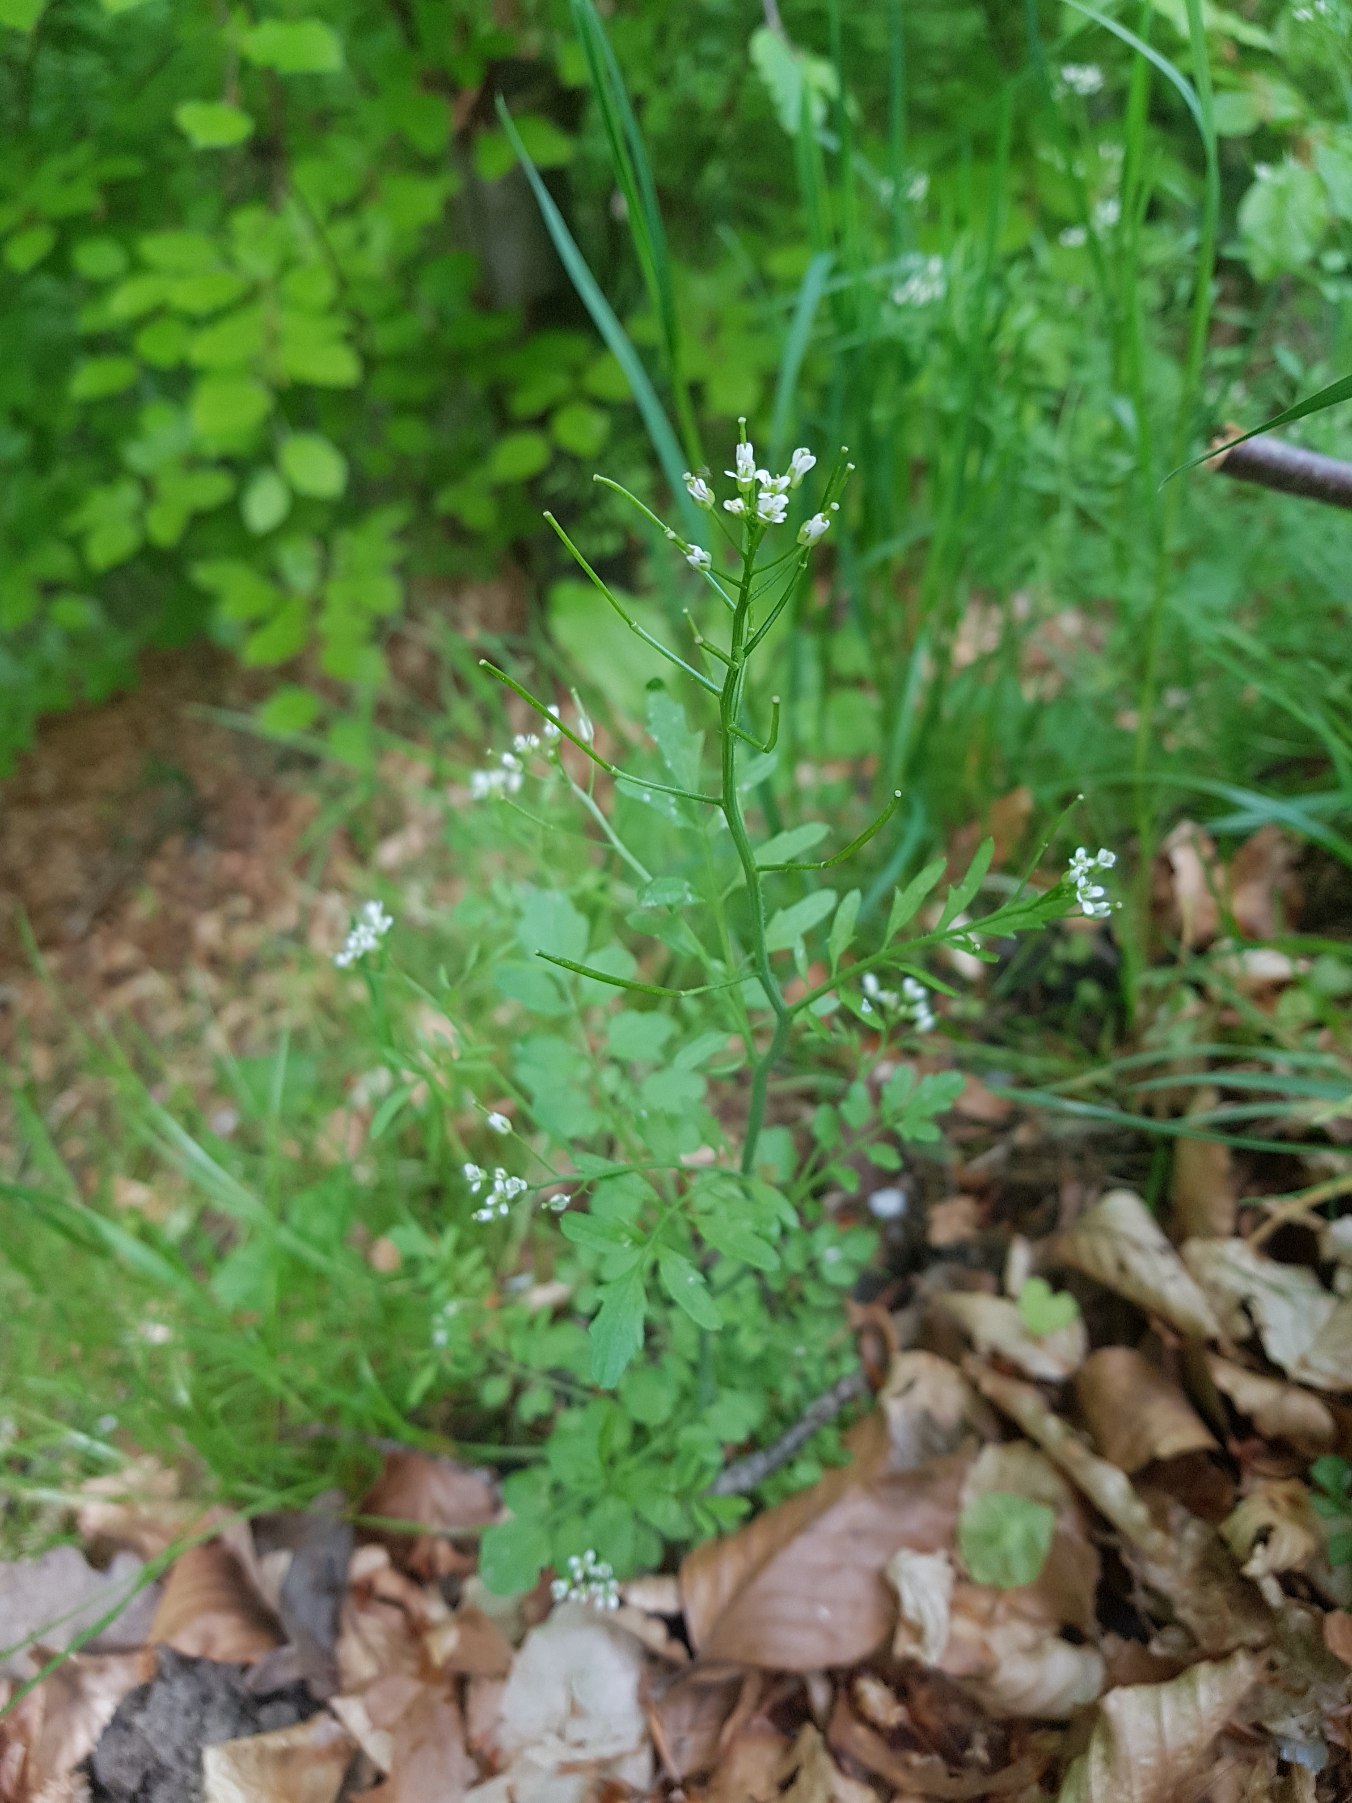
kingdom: Plantae
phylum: Tracheophyta
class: Magnoliopsida
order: Brassicales
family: Brassicaceae
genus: Cardamine
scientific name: Cardamine flexuosa
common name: Skov-springklap
